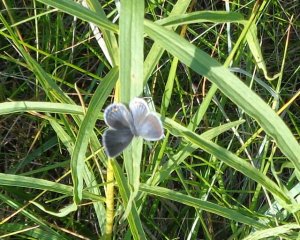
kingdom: Animalia
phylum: Arthropoda
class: Insecta
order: Lepidoptera
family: Lycaenidae
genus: Elkalyce
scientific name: Elkalyce comyntas
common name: Eastern Tailed-Blue
